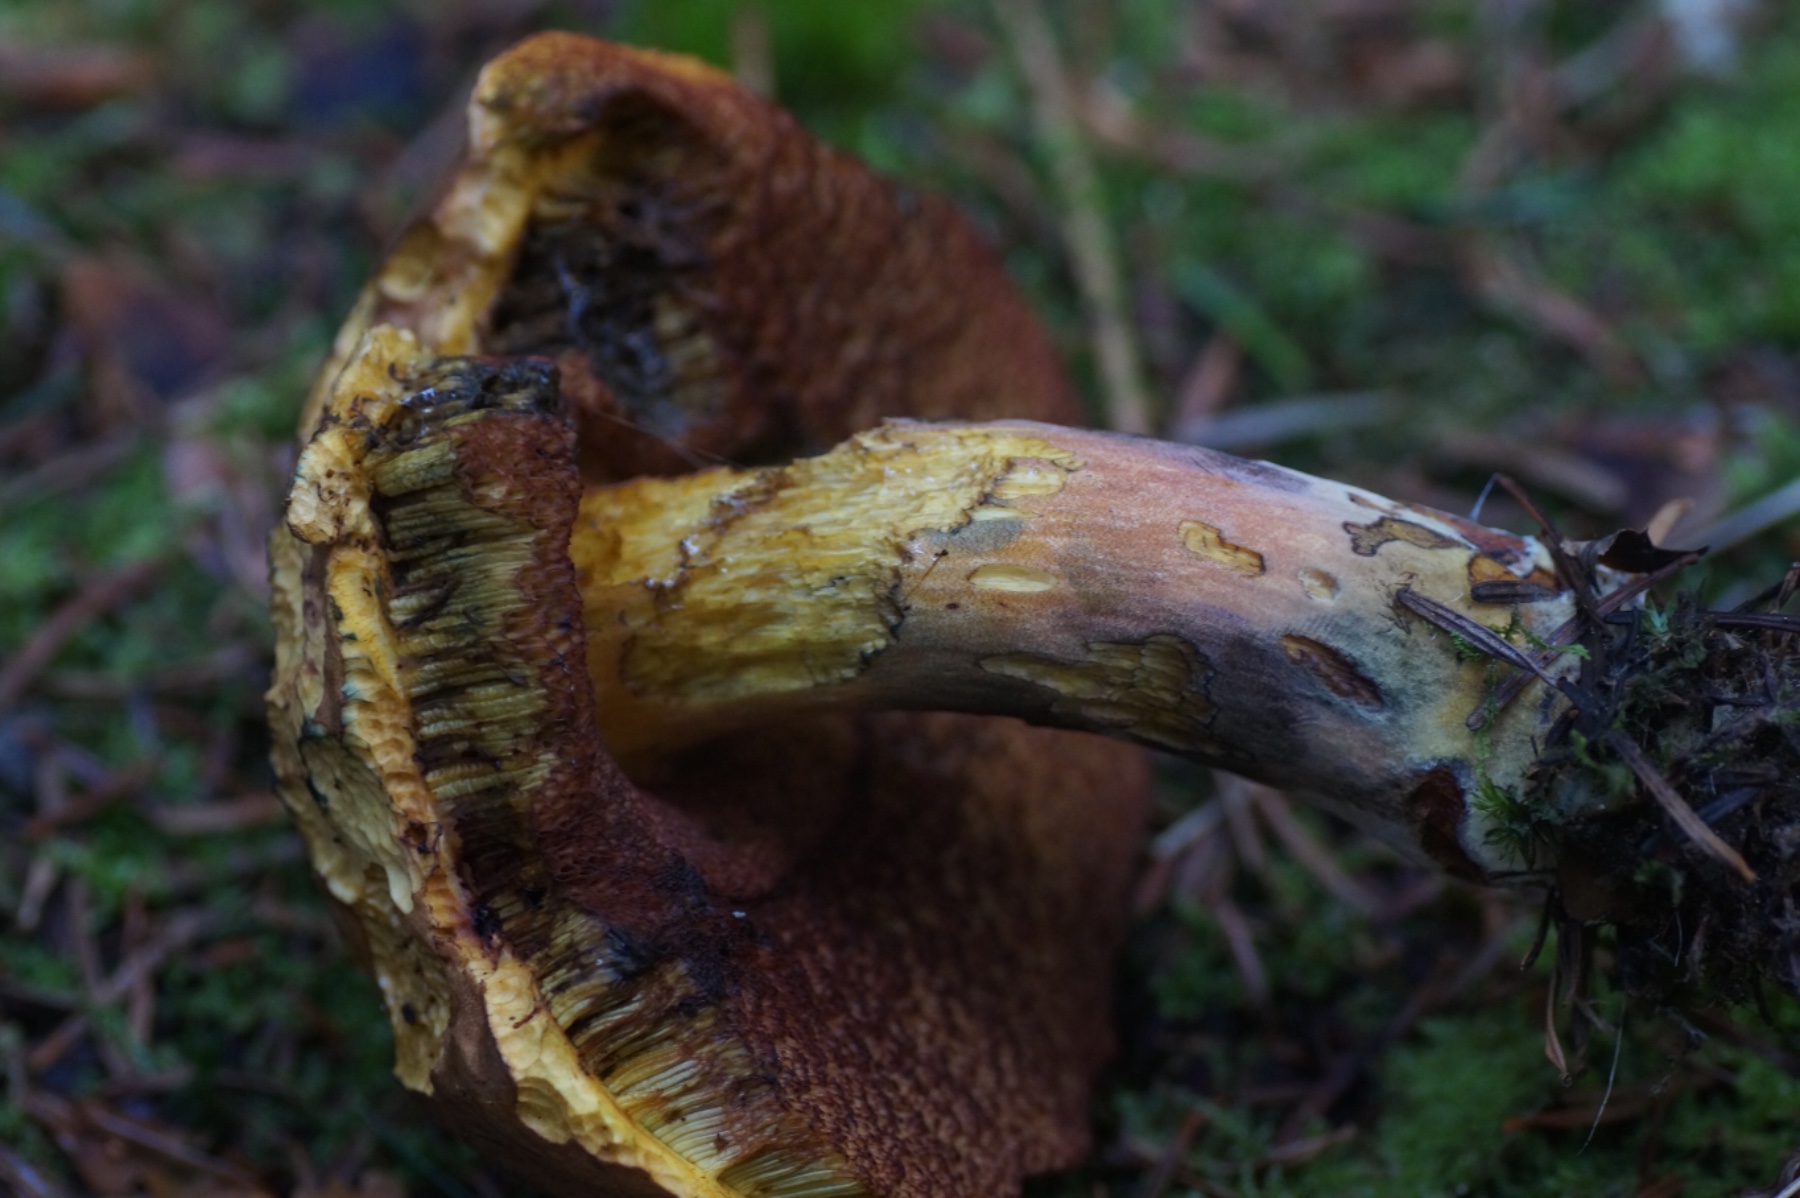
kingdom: Fungi
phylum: Basidiomycota
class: Agaricomycetes
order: Boletales
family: Boletaceae
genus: Neoboletus
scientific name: Neoboletus erythropus
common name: punktstokket indigorørhat
